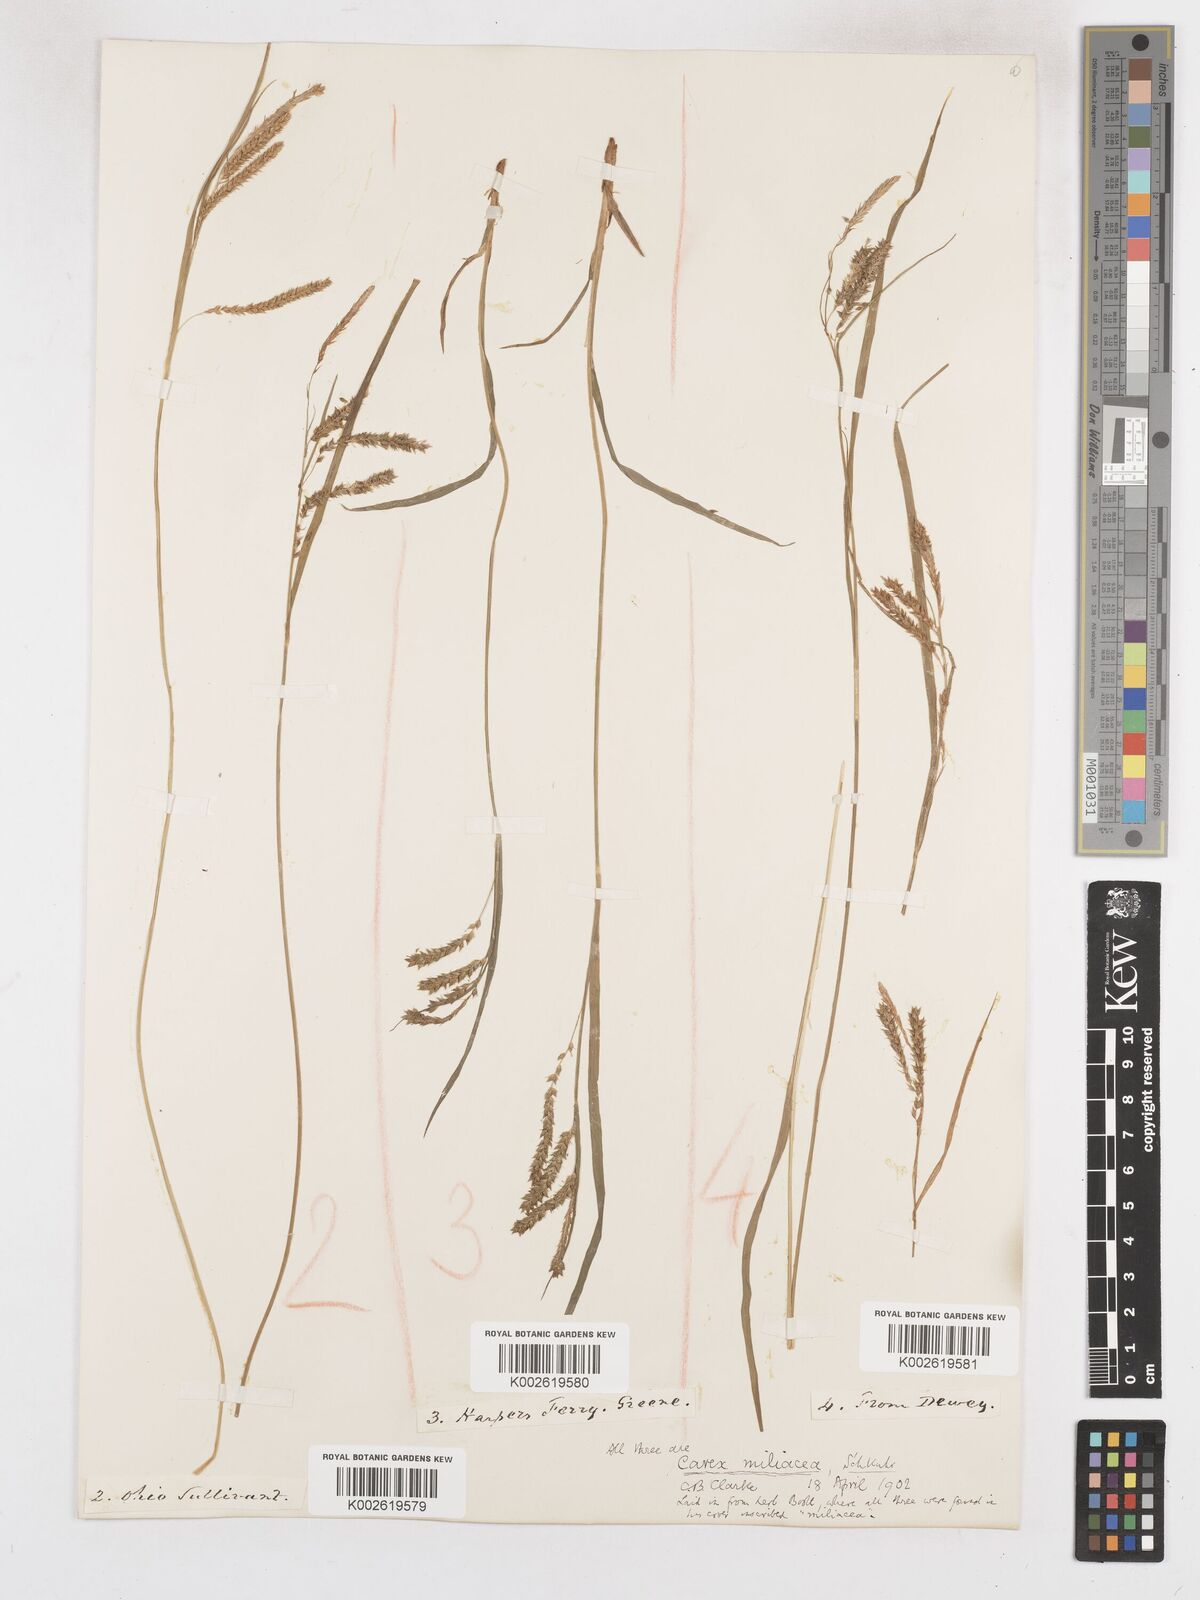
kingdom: Plantae
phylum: Tracheophyta
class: Liliopsida
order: Poales
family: Cyperaceae
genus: Carex
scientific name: Carex prasina
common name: Drooping sedge
